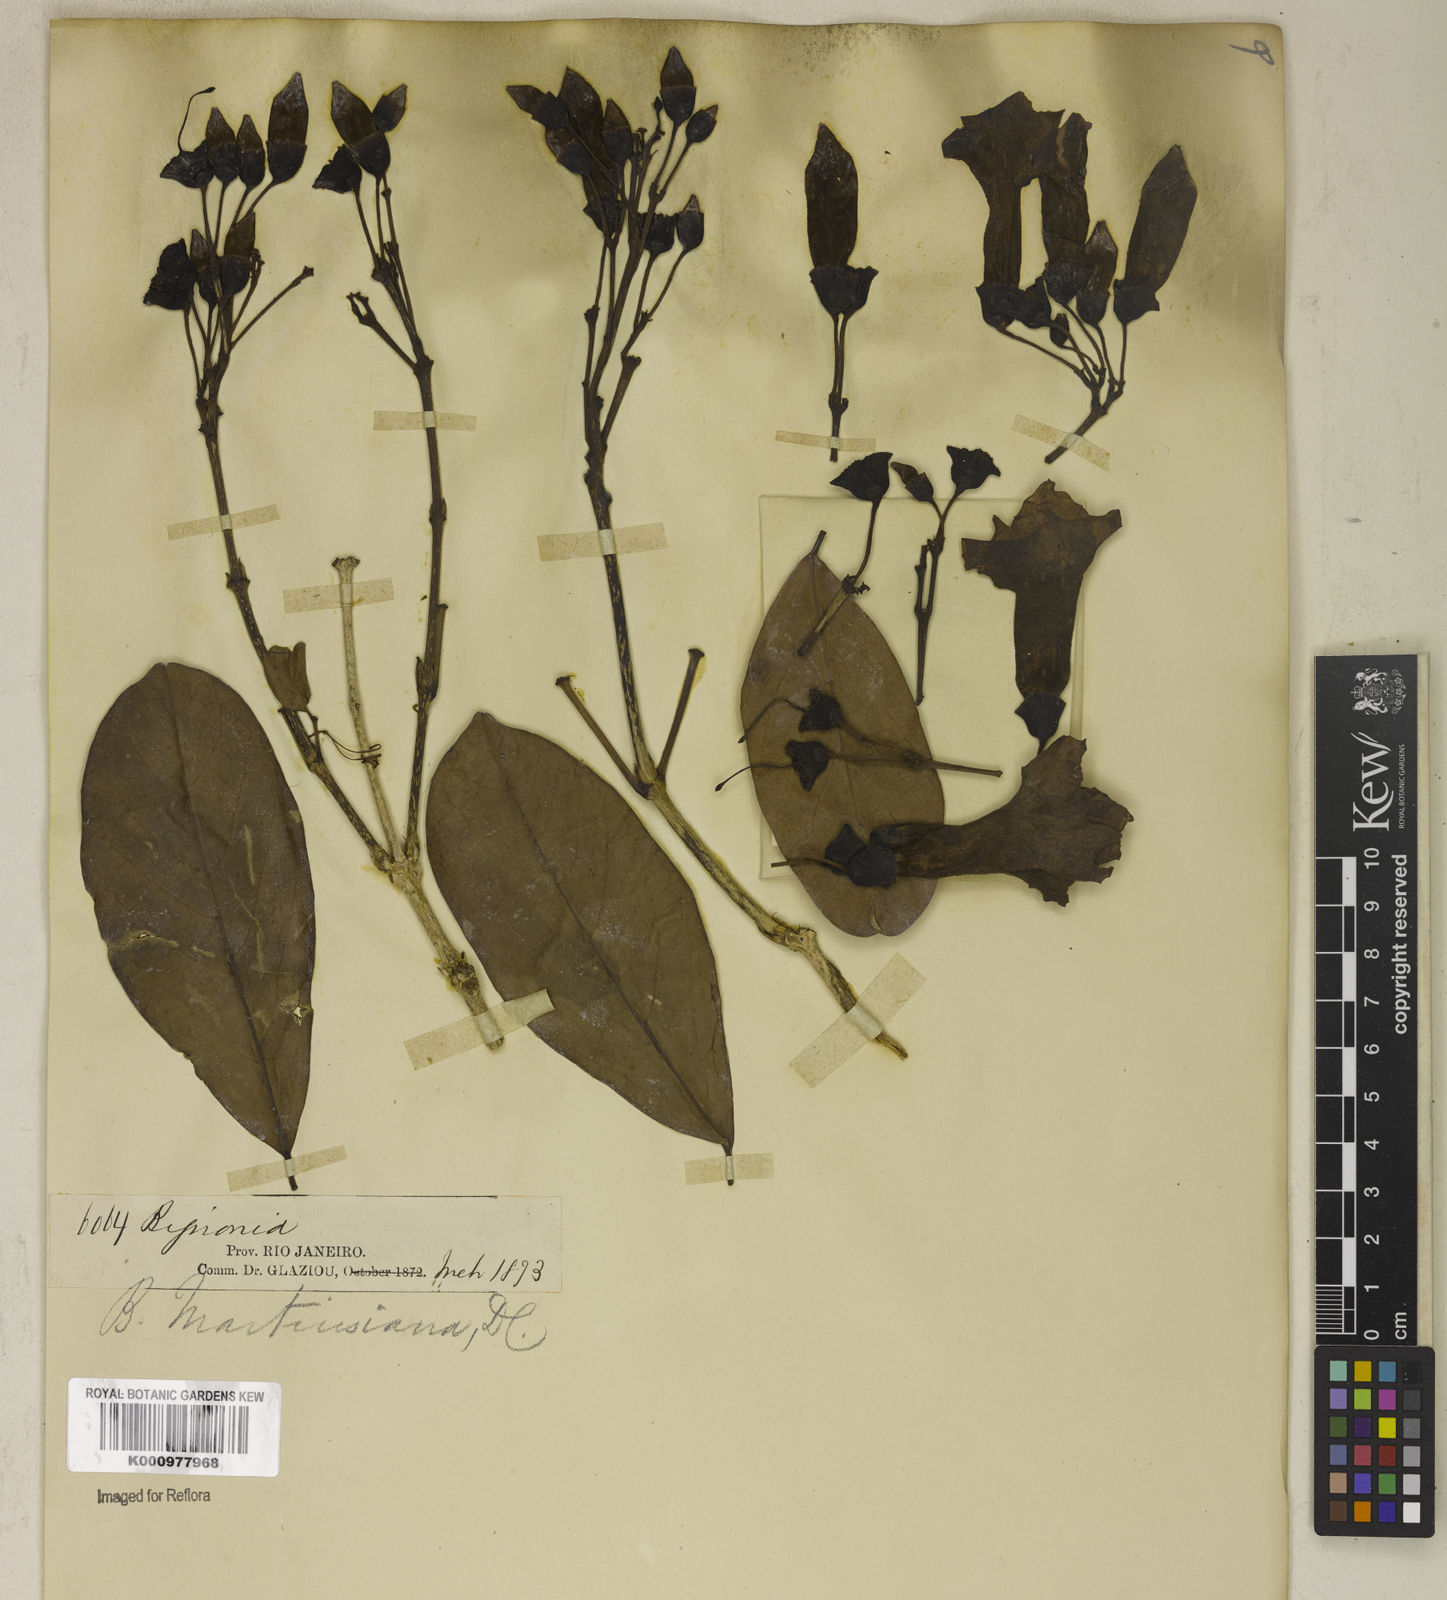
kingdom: Plantae
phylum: Tracheophyta
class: Magnoliopsida
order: Lamiales
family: Bignoniaceae
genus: Tanaecium
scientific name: Tanaecium pyramidatum
